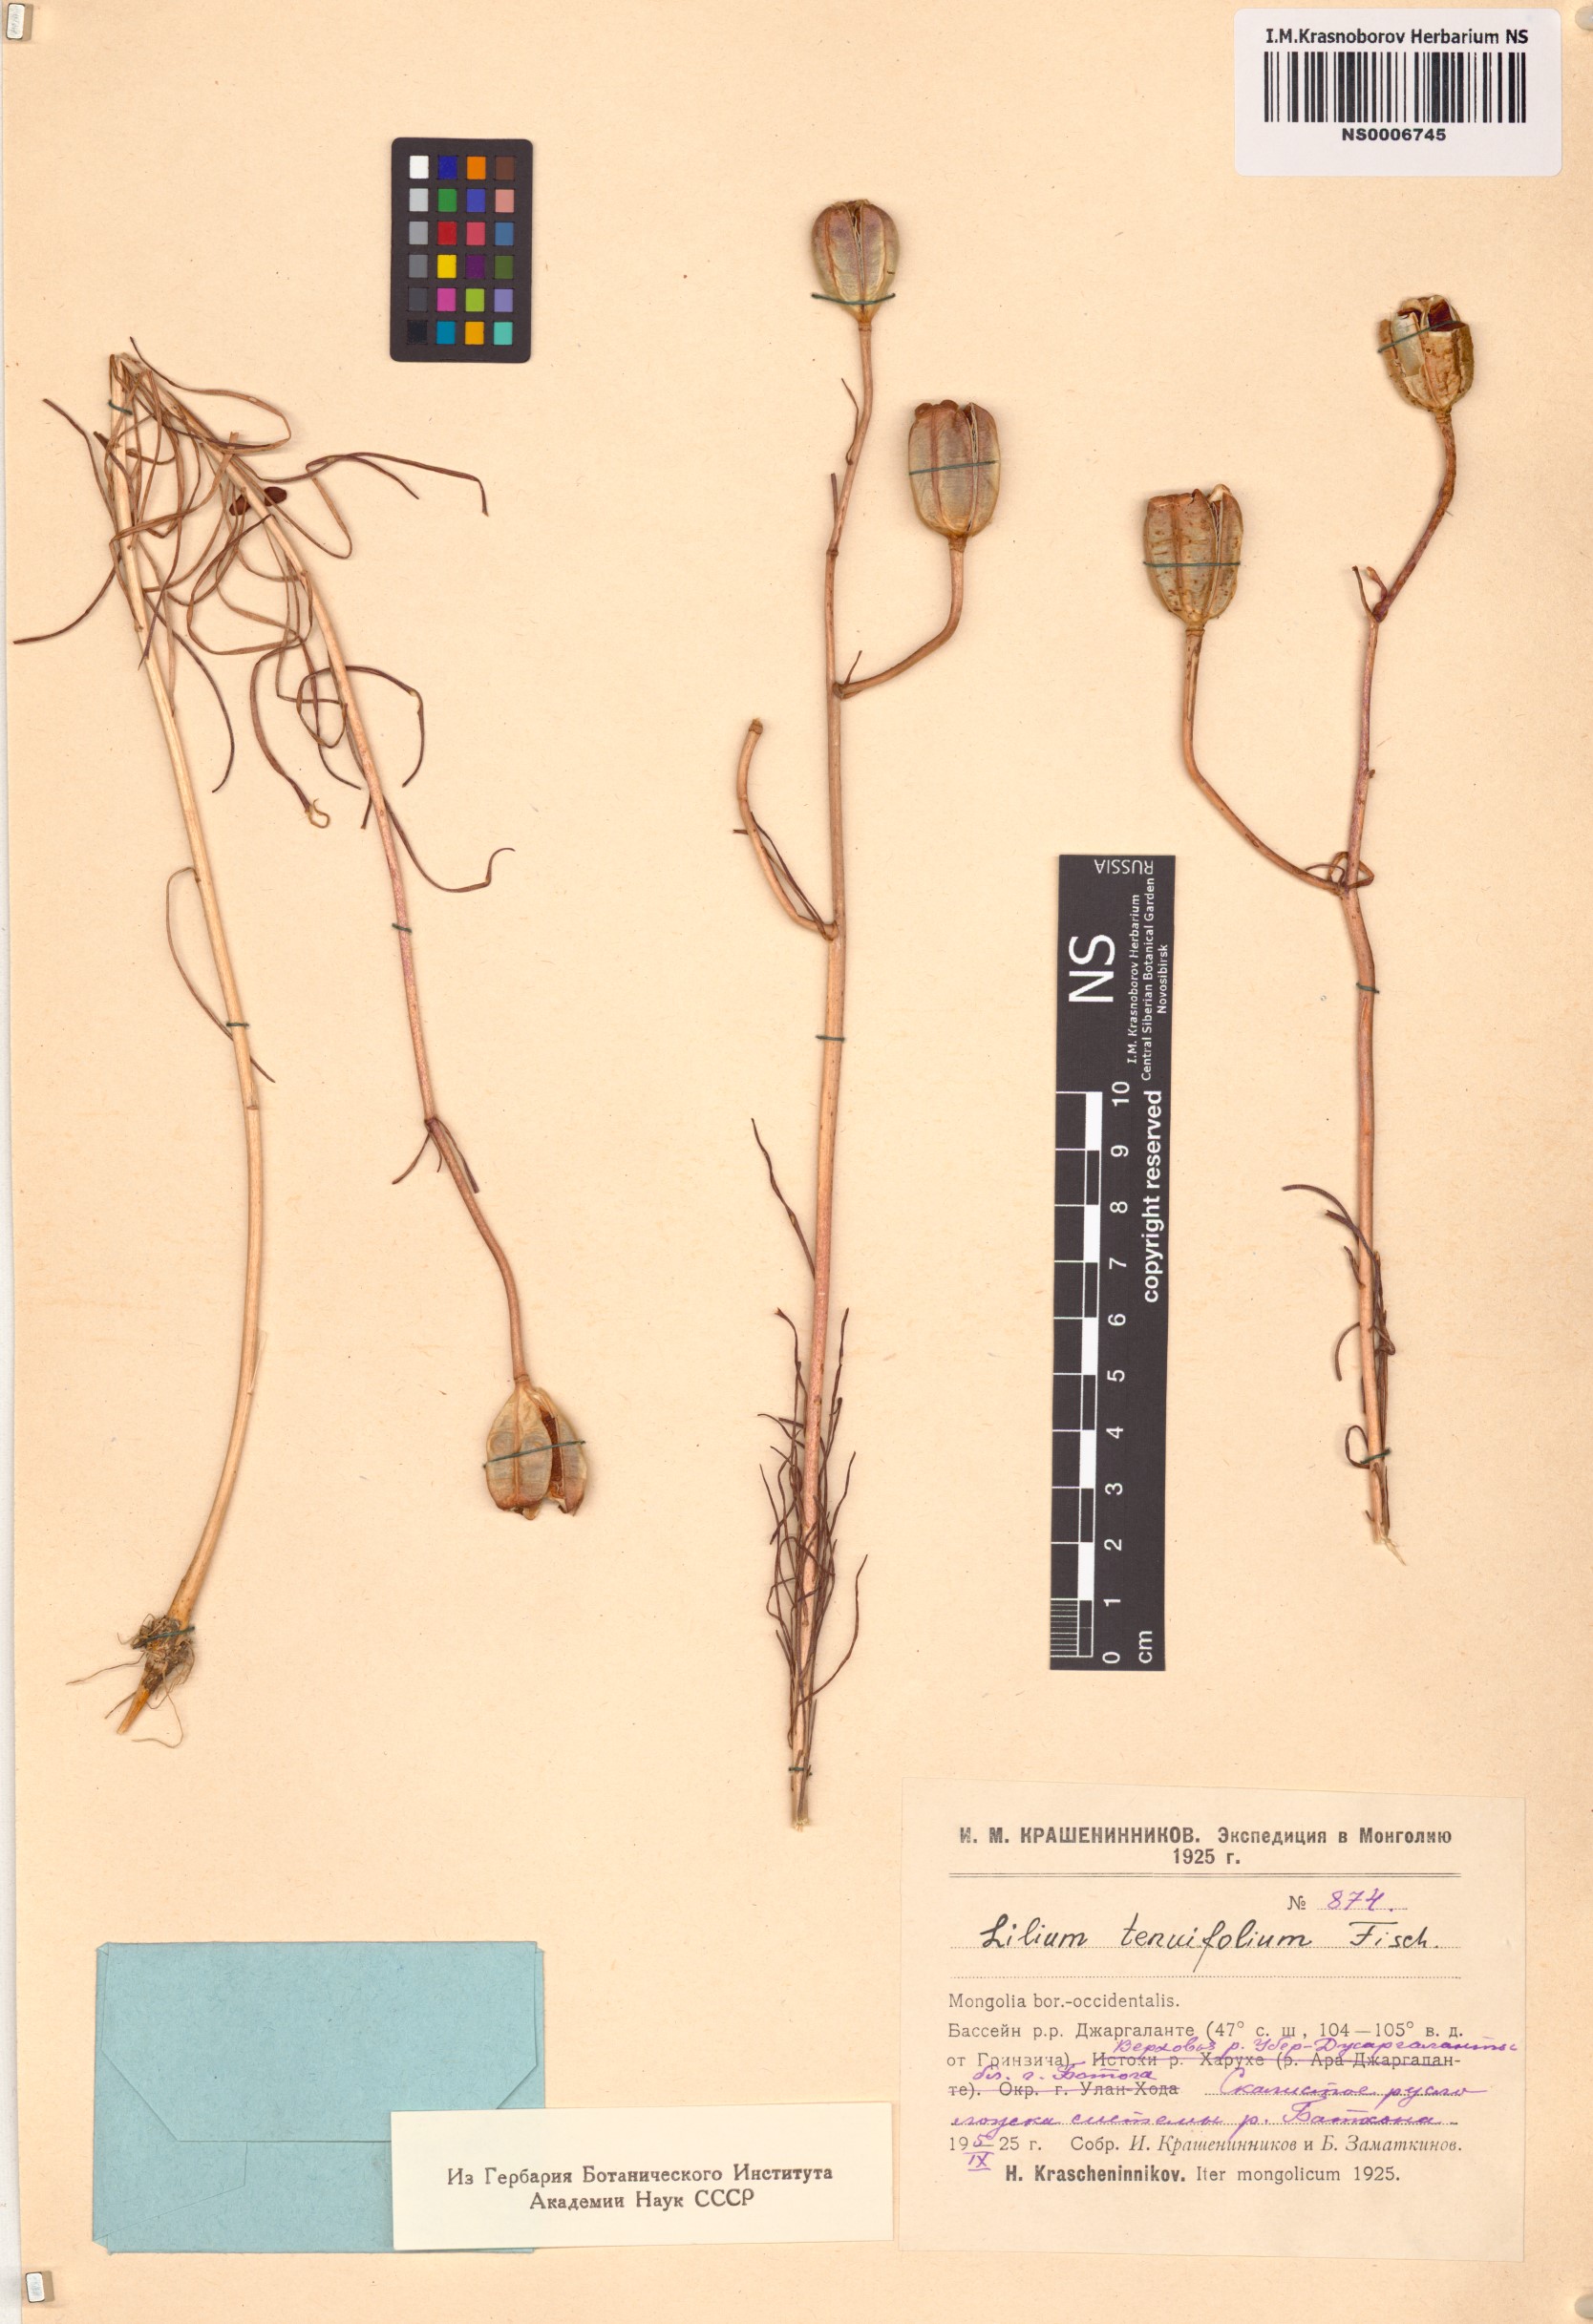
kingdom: Plantae
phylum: Tracheophyta
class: Liliopsida
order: Liliales
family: Liliaceae
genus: Lilium
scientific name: Lilium pumilum
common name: Coral lily
